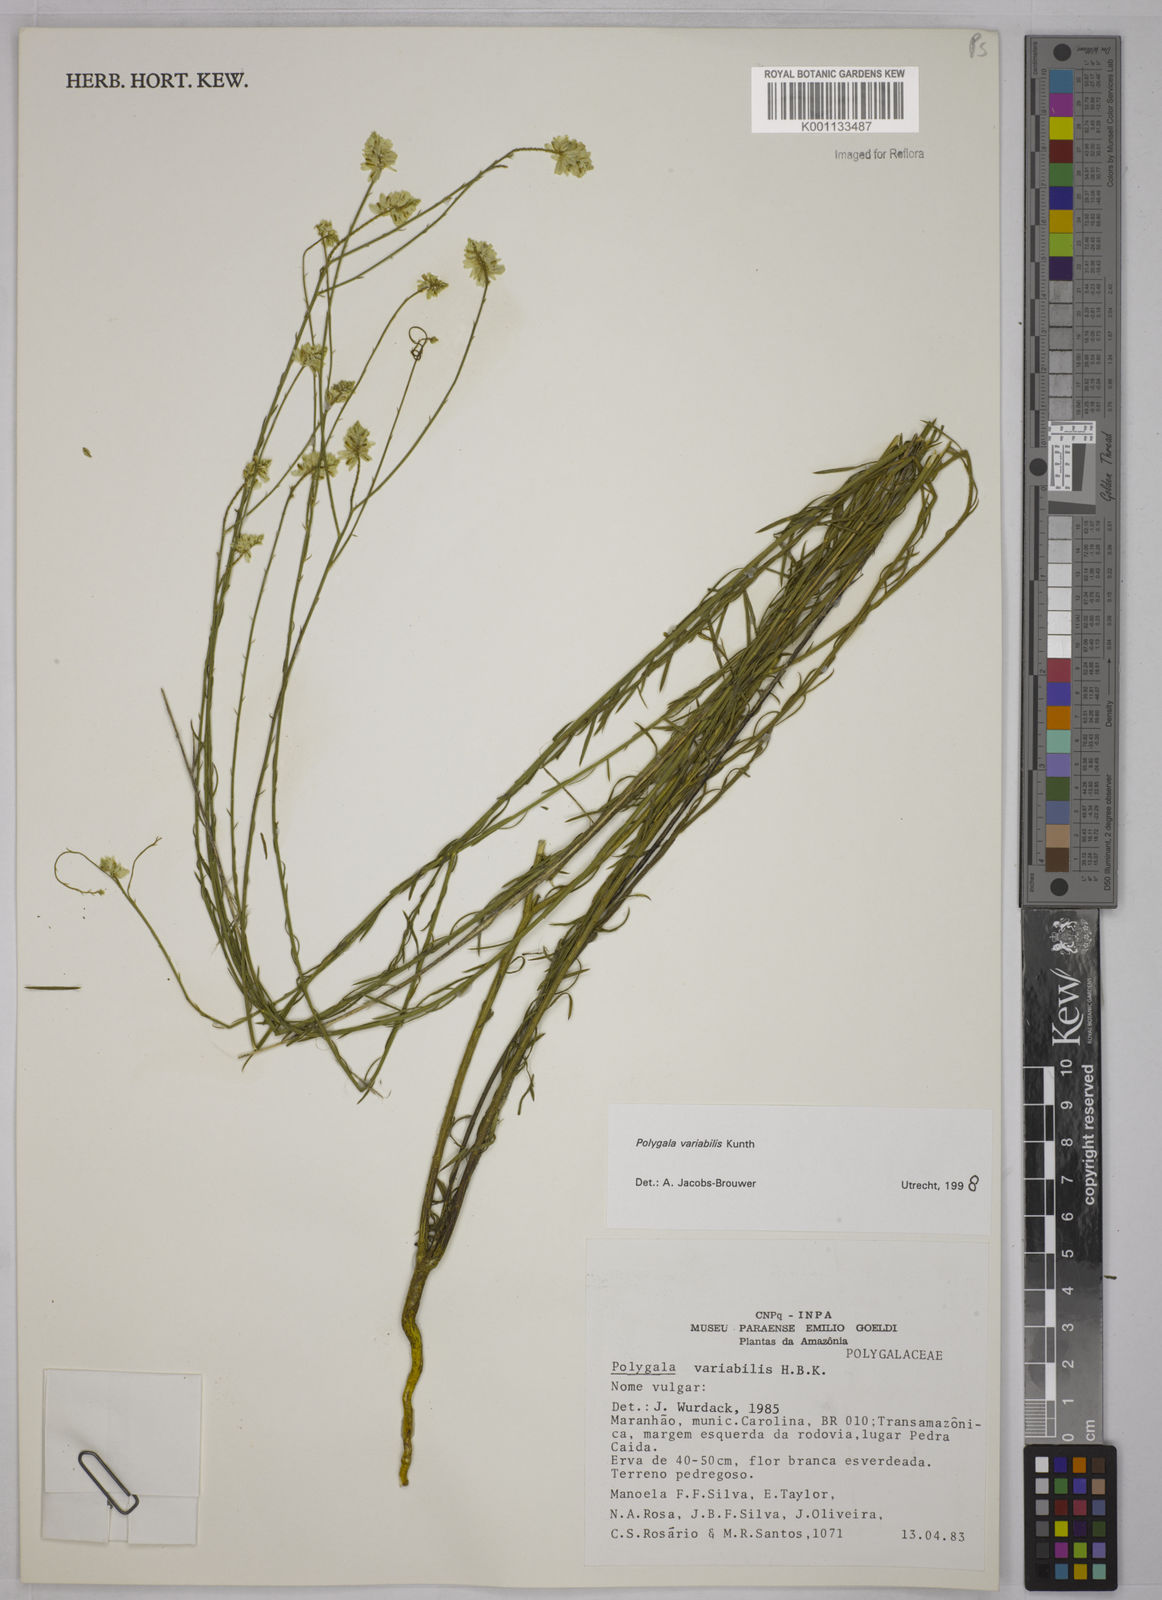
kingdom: Plantae
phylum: Tracheophyta
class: Magnoliopsida
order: Fabales
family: Polygalaceae
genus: Polygala
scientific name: Polygala trichosperma
